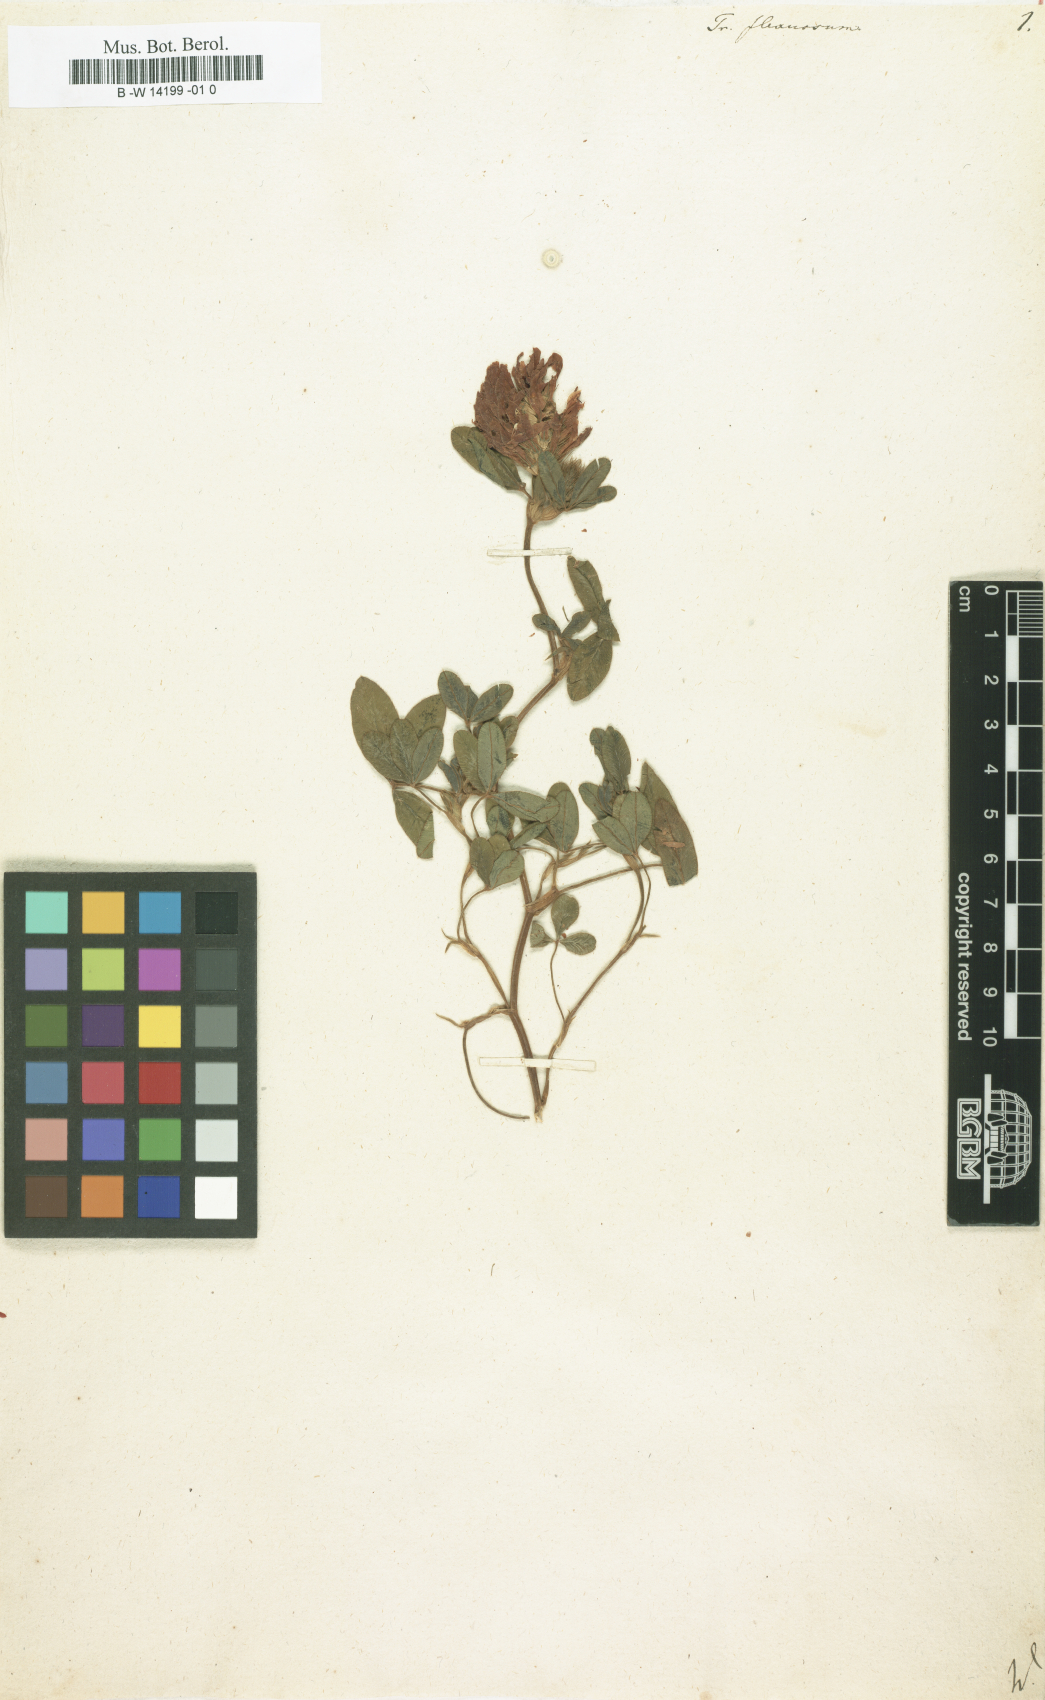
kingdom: Plantae
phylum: Tracheophyta
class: Magnoliopsida
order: Fabales
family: Fabaceae
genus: Trifolium
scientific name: Trifolium medium
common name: Zigzag clover
